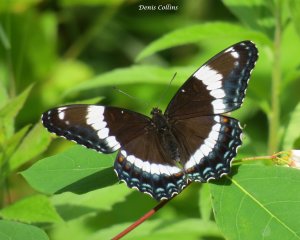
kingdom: Animalia
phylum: Arthropoda
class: Insecta
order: Lepidoptera
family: Nymphalidae
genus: Limenitis
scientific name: Limenitis arthemis
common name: Red-spotted Admiral
